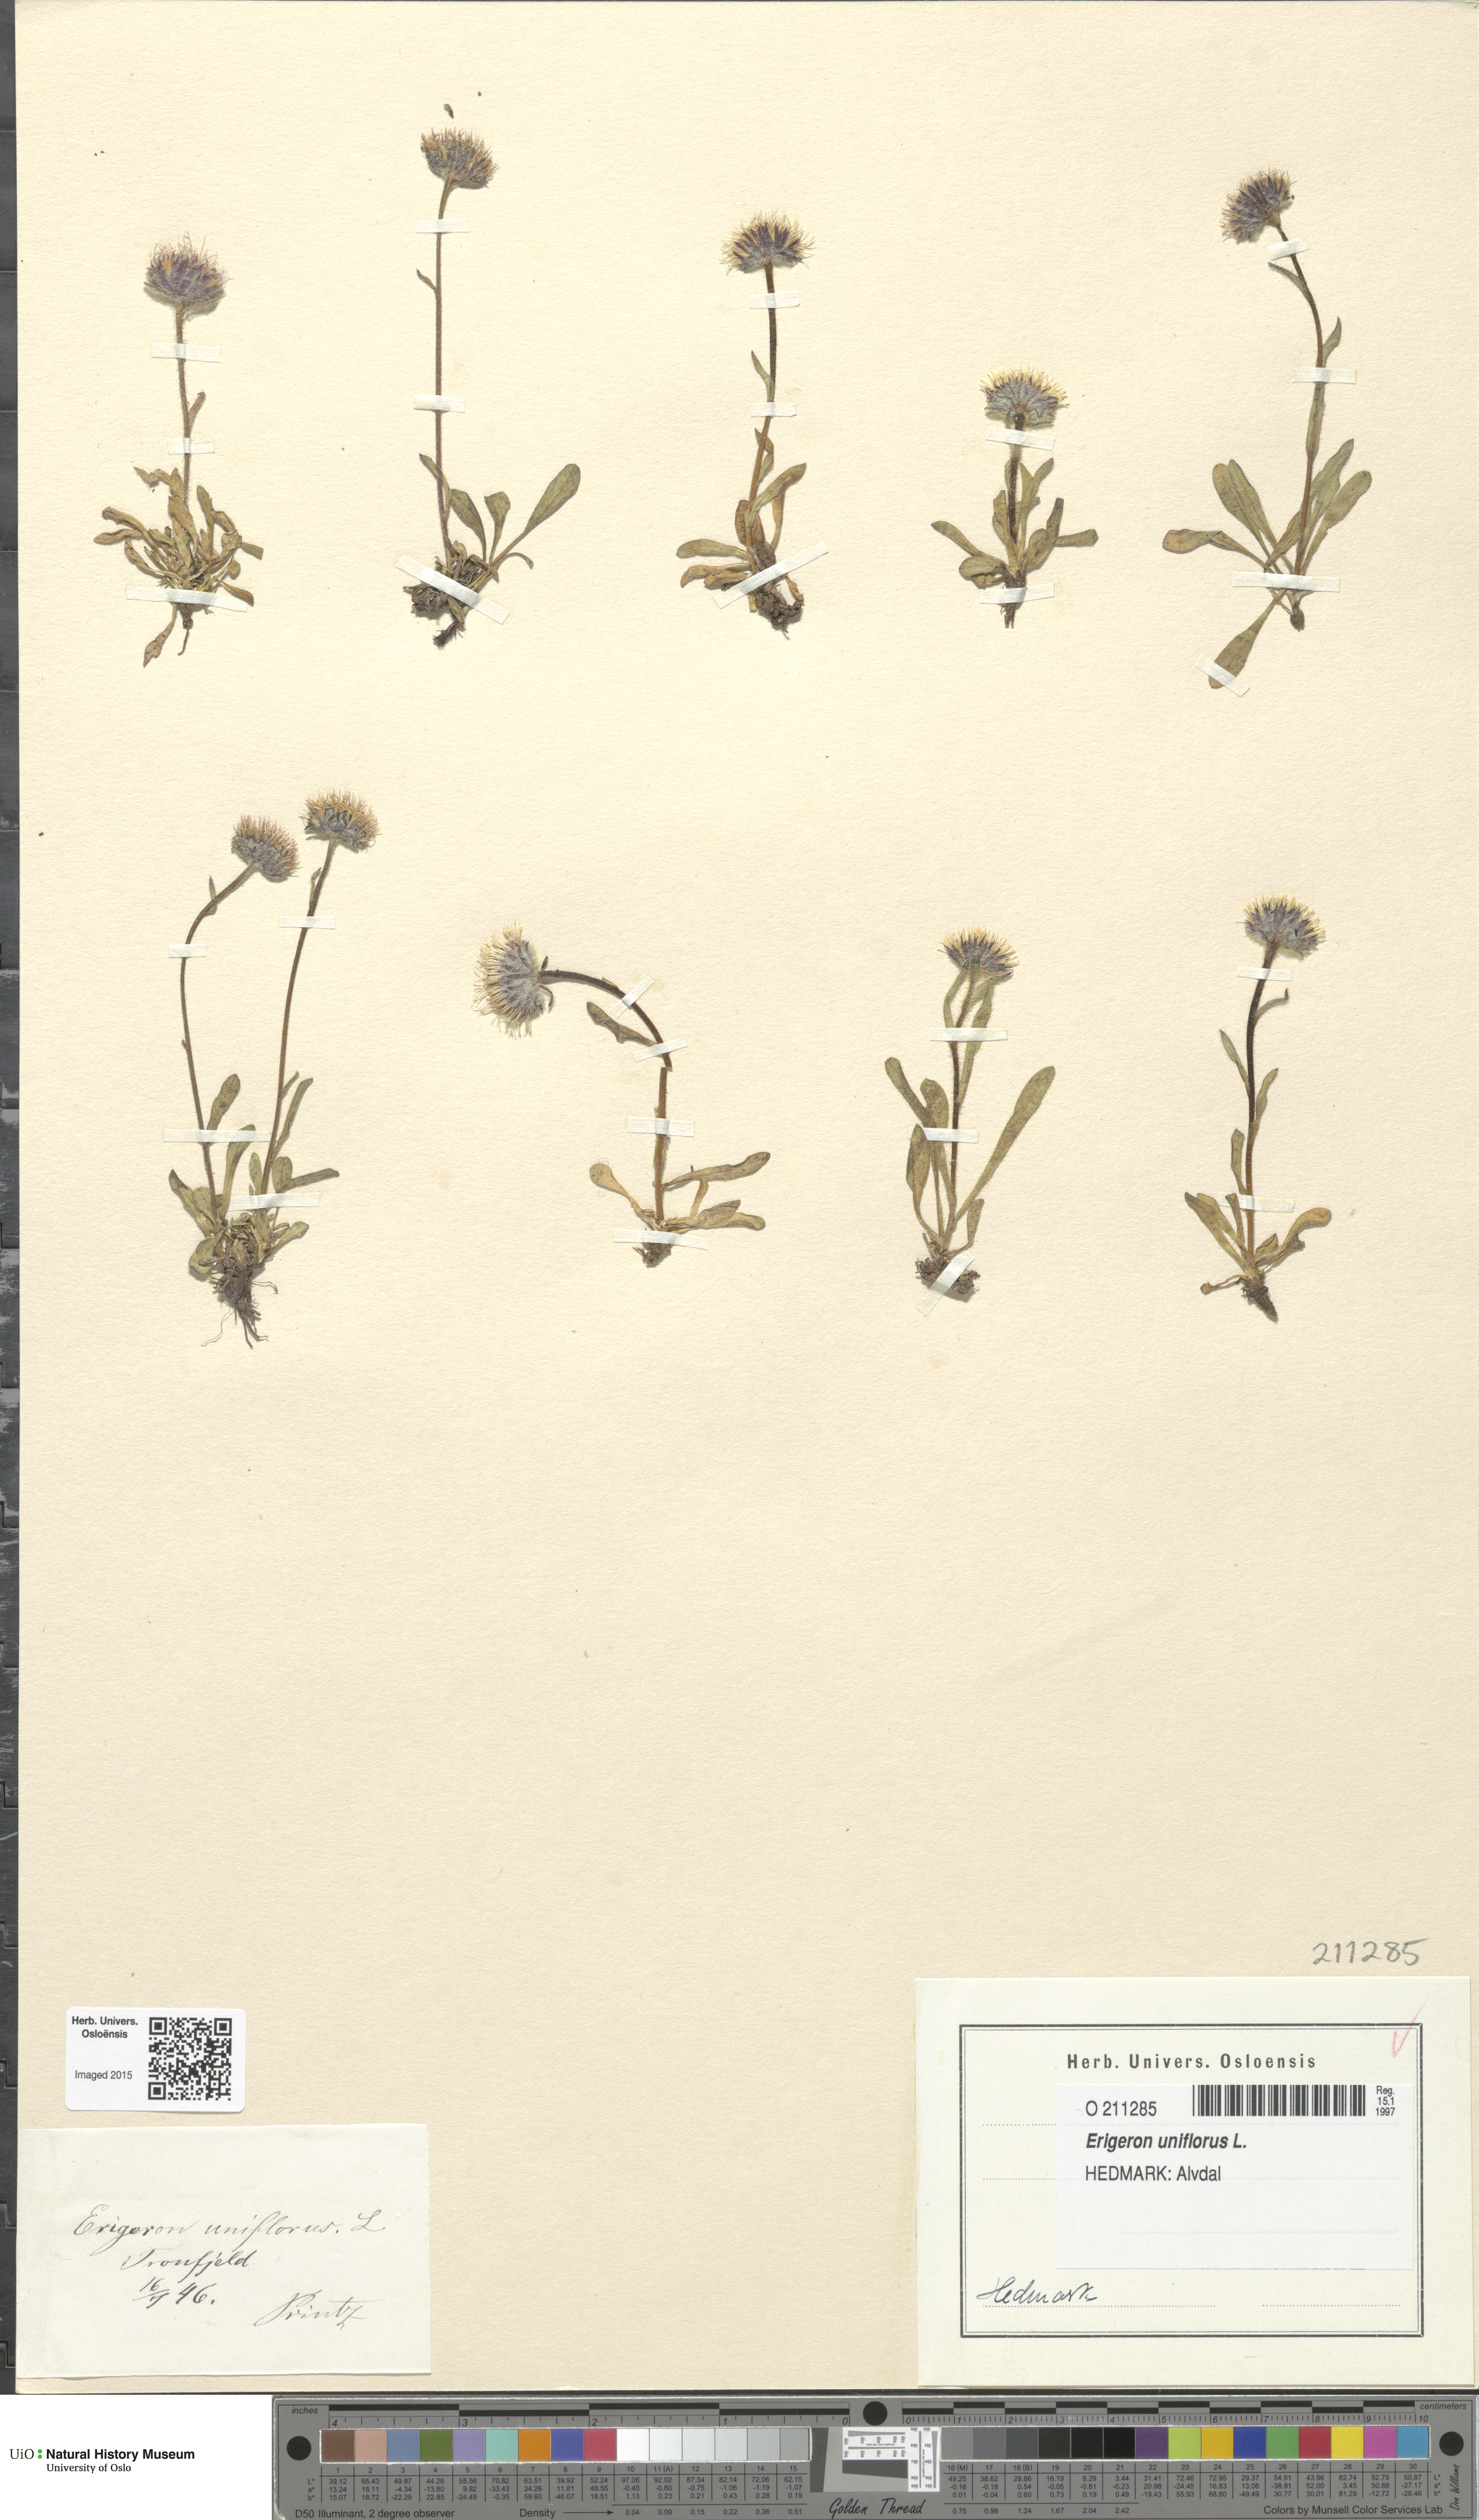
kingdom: Plantae
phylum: Tracheophyta
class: Magnoliopsida
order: Asterales
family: Asteraceae
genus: Erigeron
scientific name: Erigeron uniflorus
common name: Northern daisy
